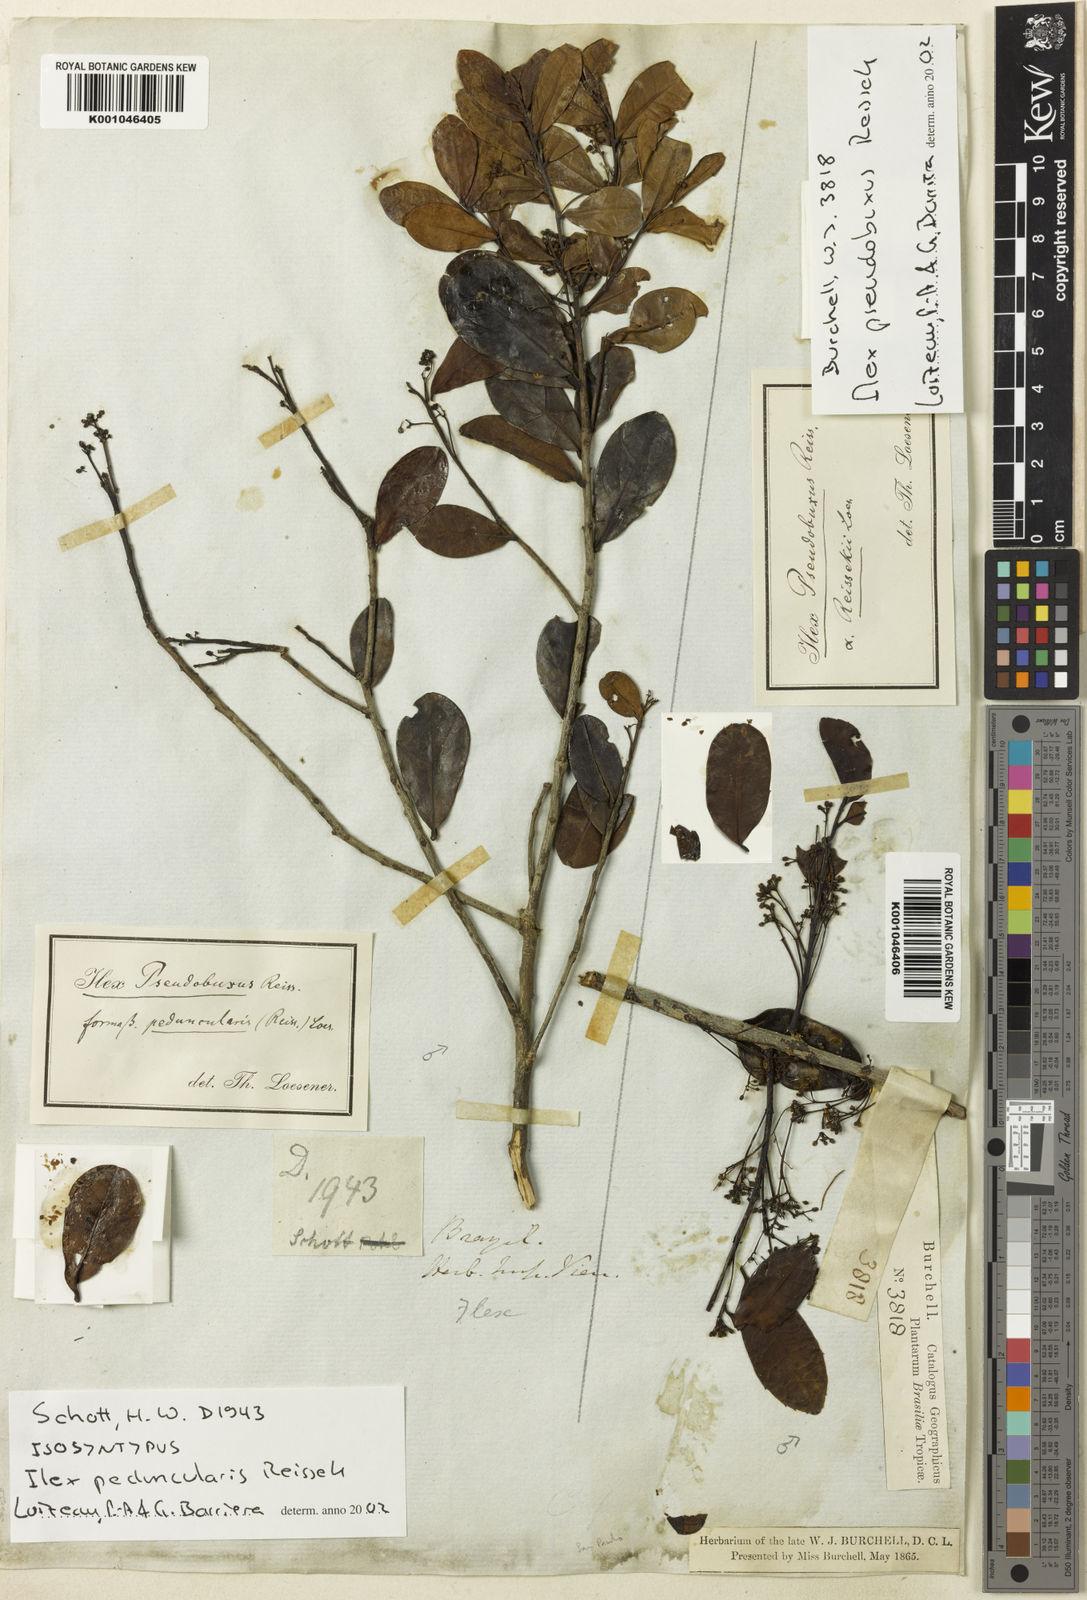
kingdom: Plantae
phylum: Tracheophyta
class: Magnoliopsida
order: Aquifoliales
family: Aquifoliaceae
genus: Ilex
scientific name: Ilex pseudobuxus
